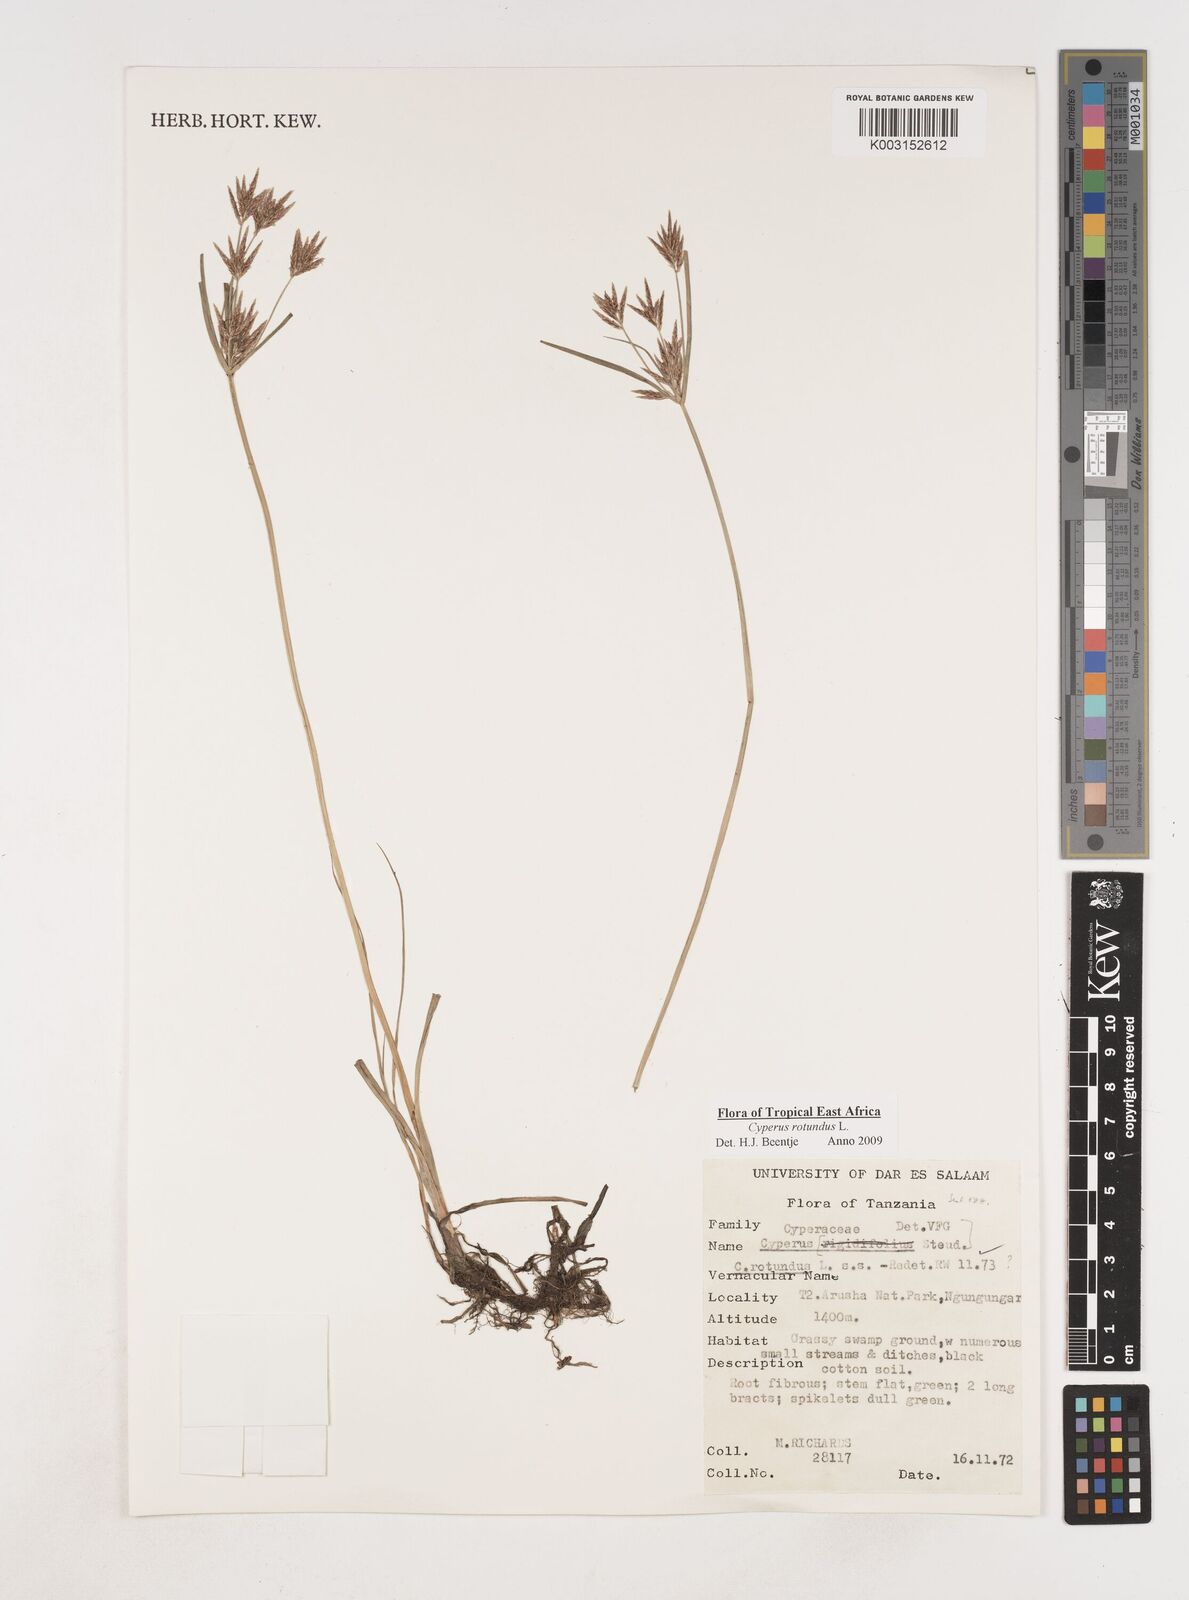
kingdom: Plantae
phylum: Tracheophyta
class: Liliopsida
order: Poales
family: Cyperaceae
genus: Cyperus
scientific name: Cyperus rotundus
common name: Nutgrass
